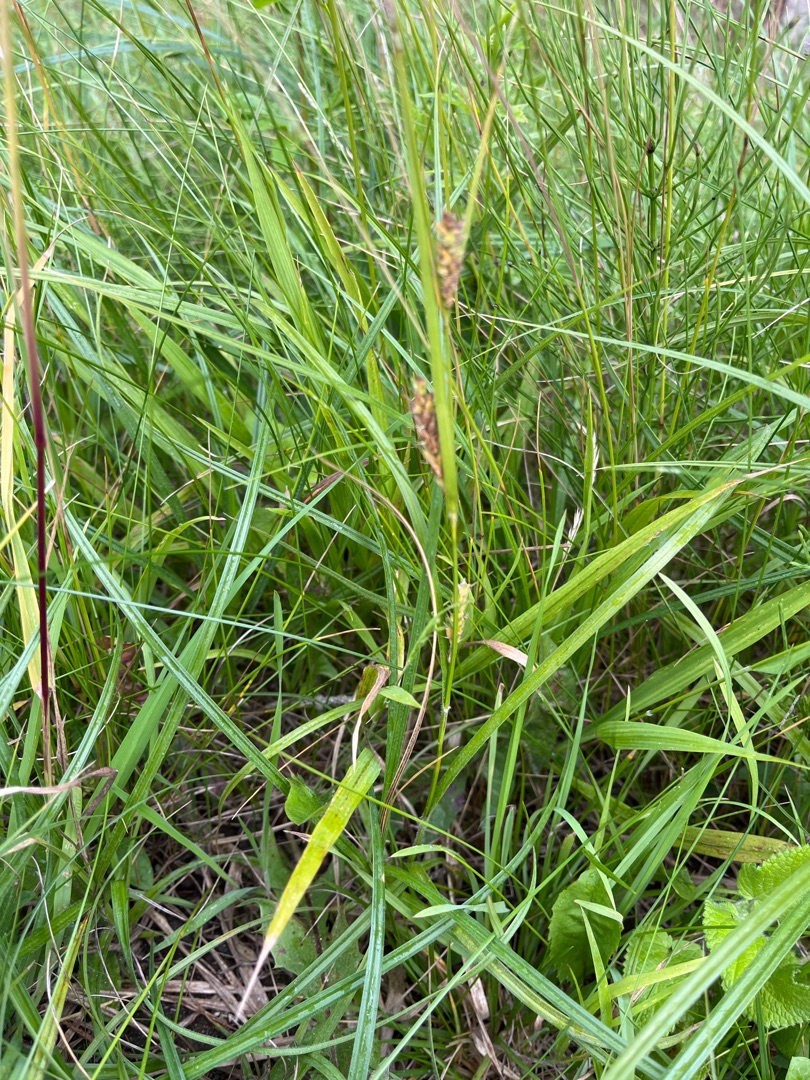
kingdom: Plantae
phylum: Tracheophyta
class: Liliopsida
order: Poales
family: Cyperaceae
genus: Carex
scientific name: Carex hirta
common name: Håret star
